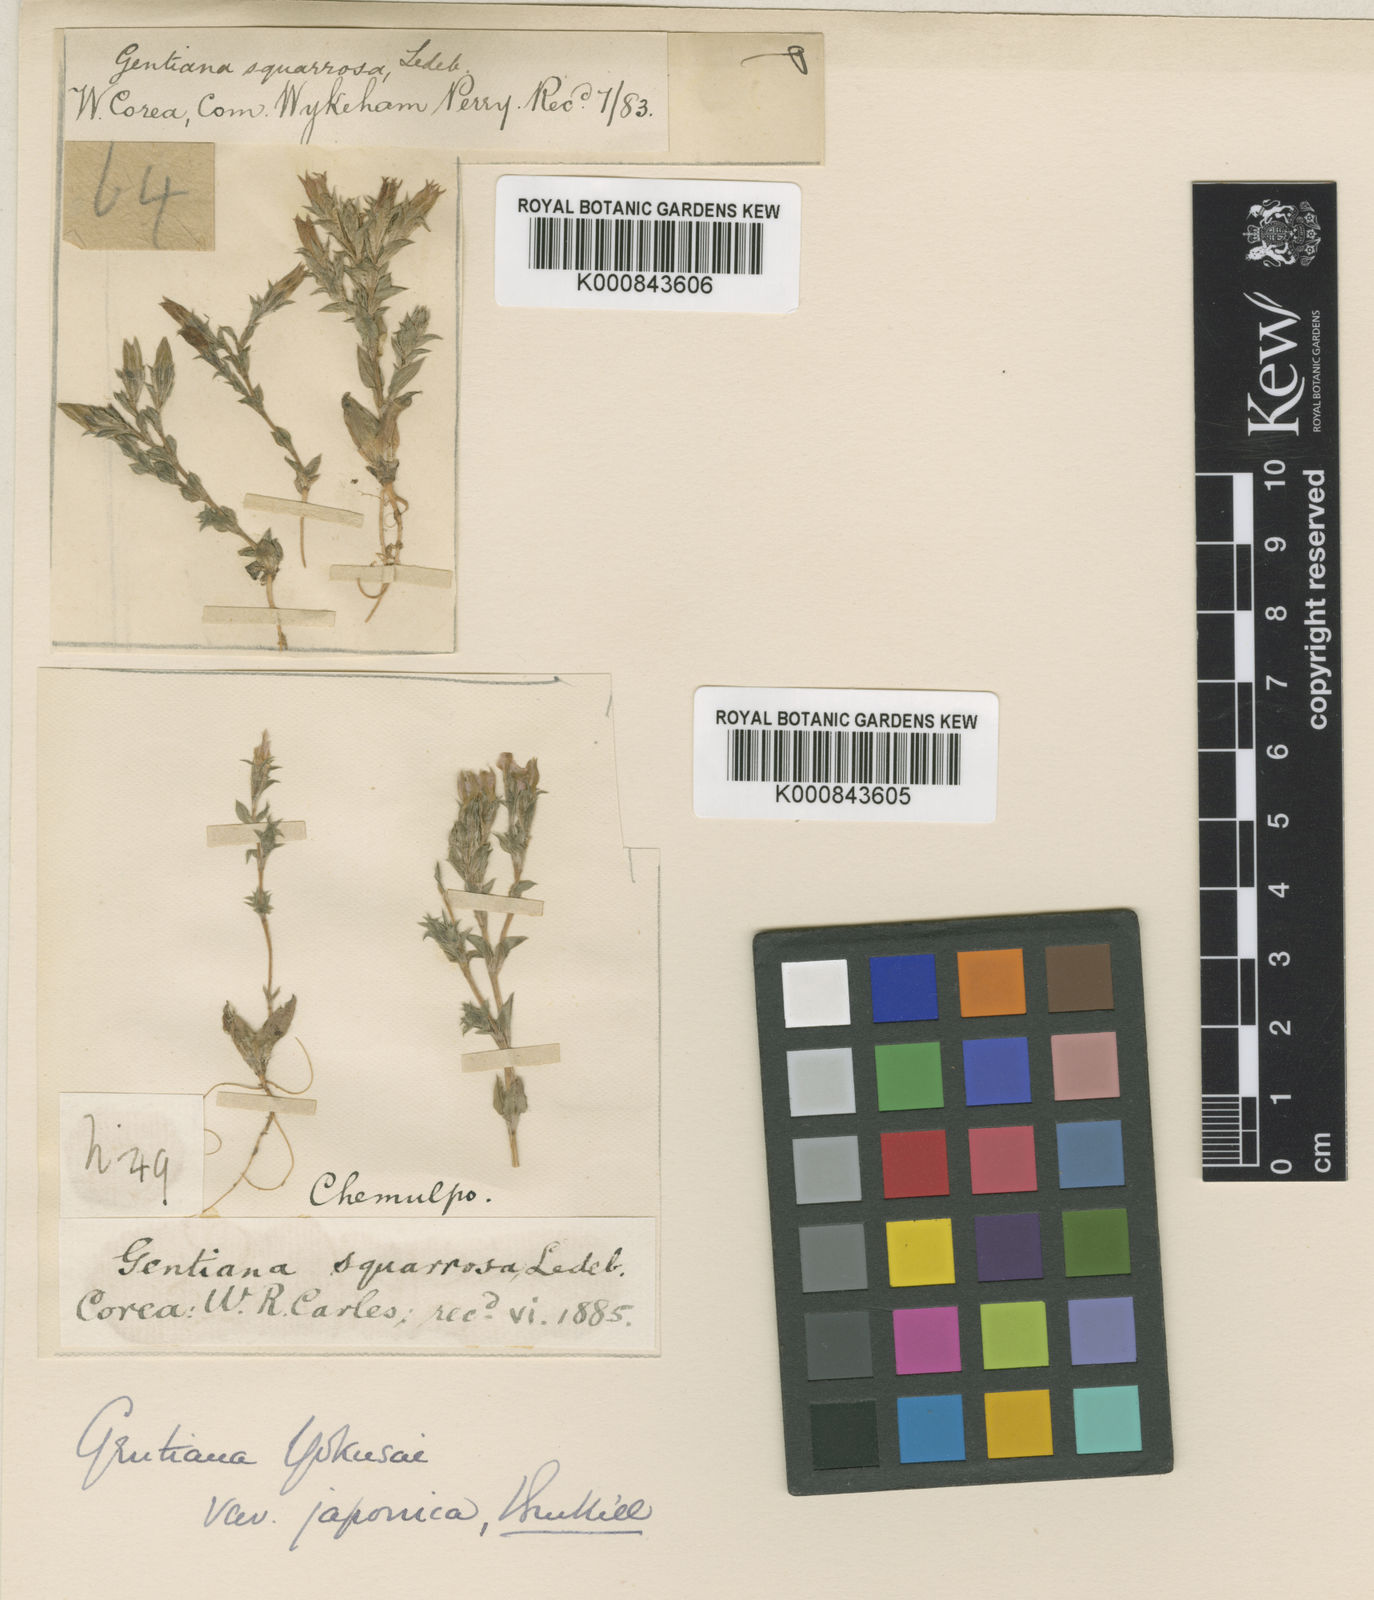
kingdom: Plantae
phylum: Tracheophyta
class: Magnoliopsida
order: Gentianales
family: Gentianaceae
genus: Gentiana
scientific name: Gentiana yokusai
